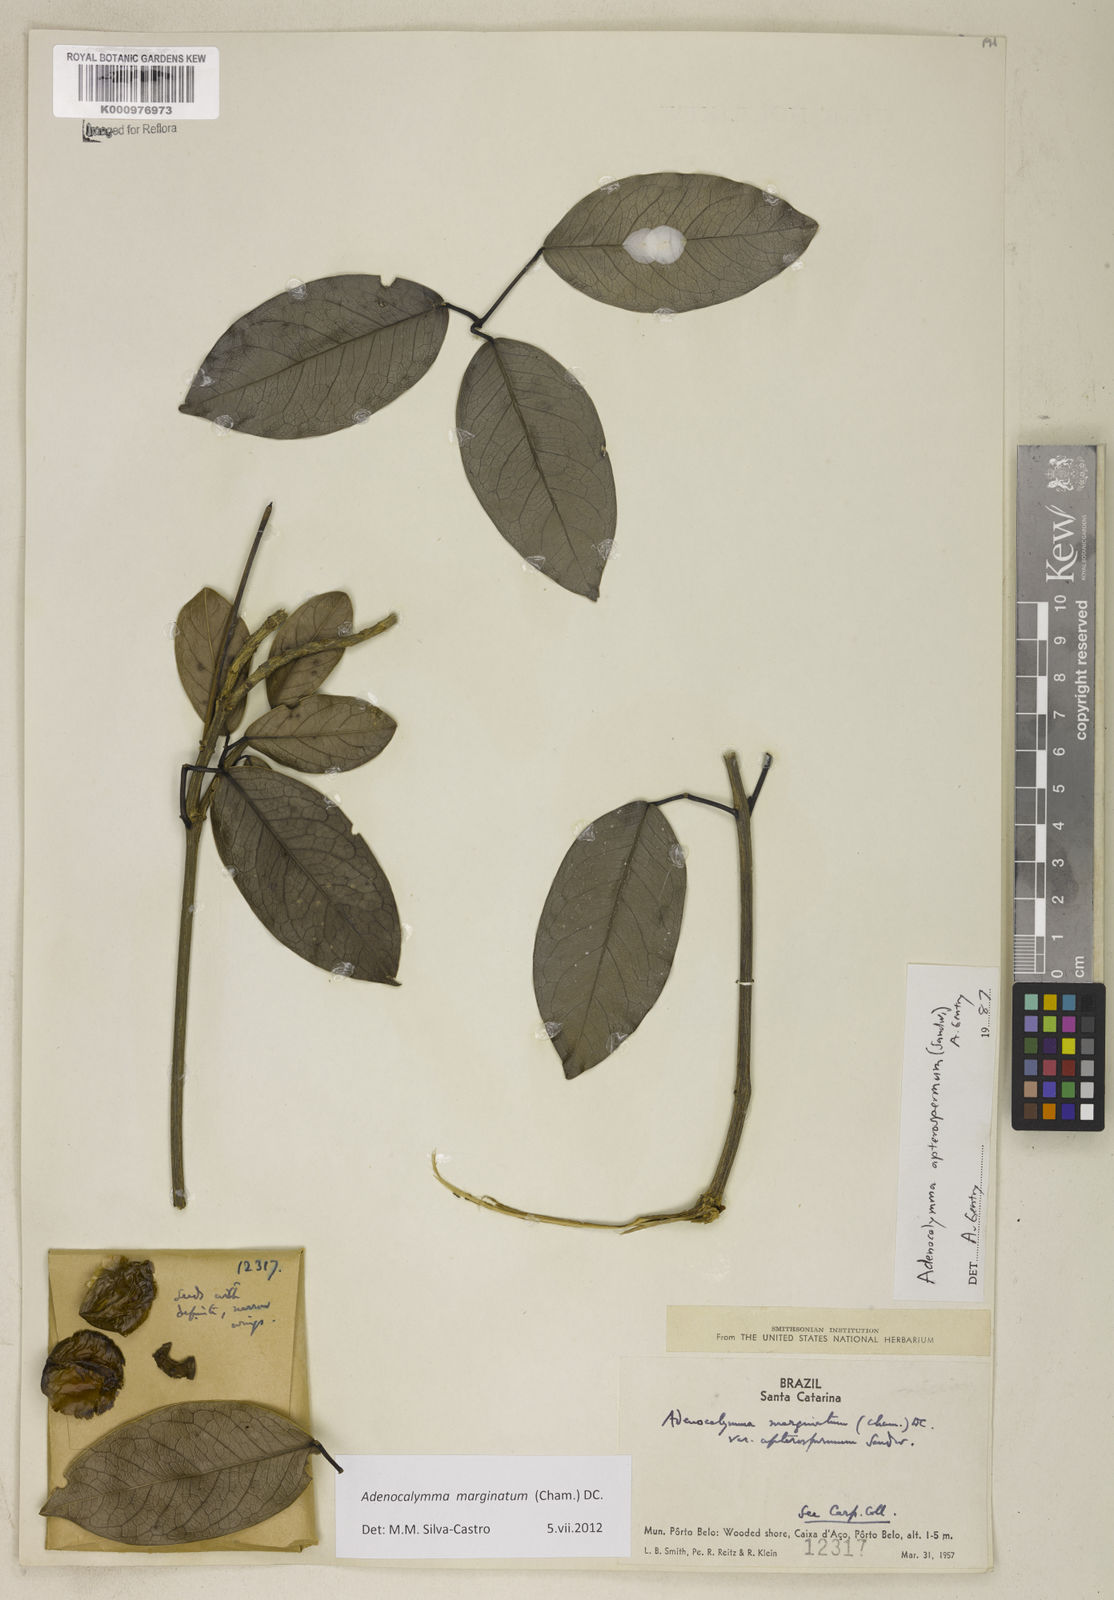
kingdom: Plantae
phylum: Tracheophyta
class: Magnoliopsida
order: Lamiales
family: Bignoniaceae
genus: Adenocalymma
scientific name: Adenocalymma marginatum
